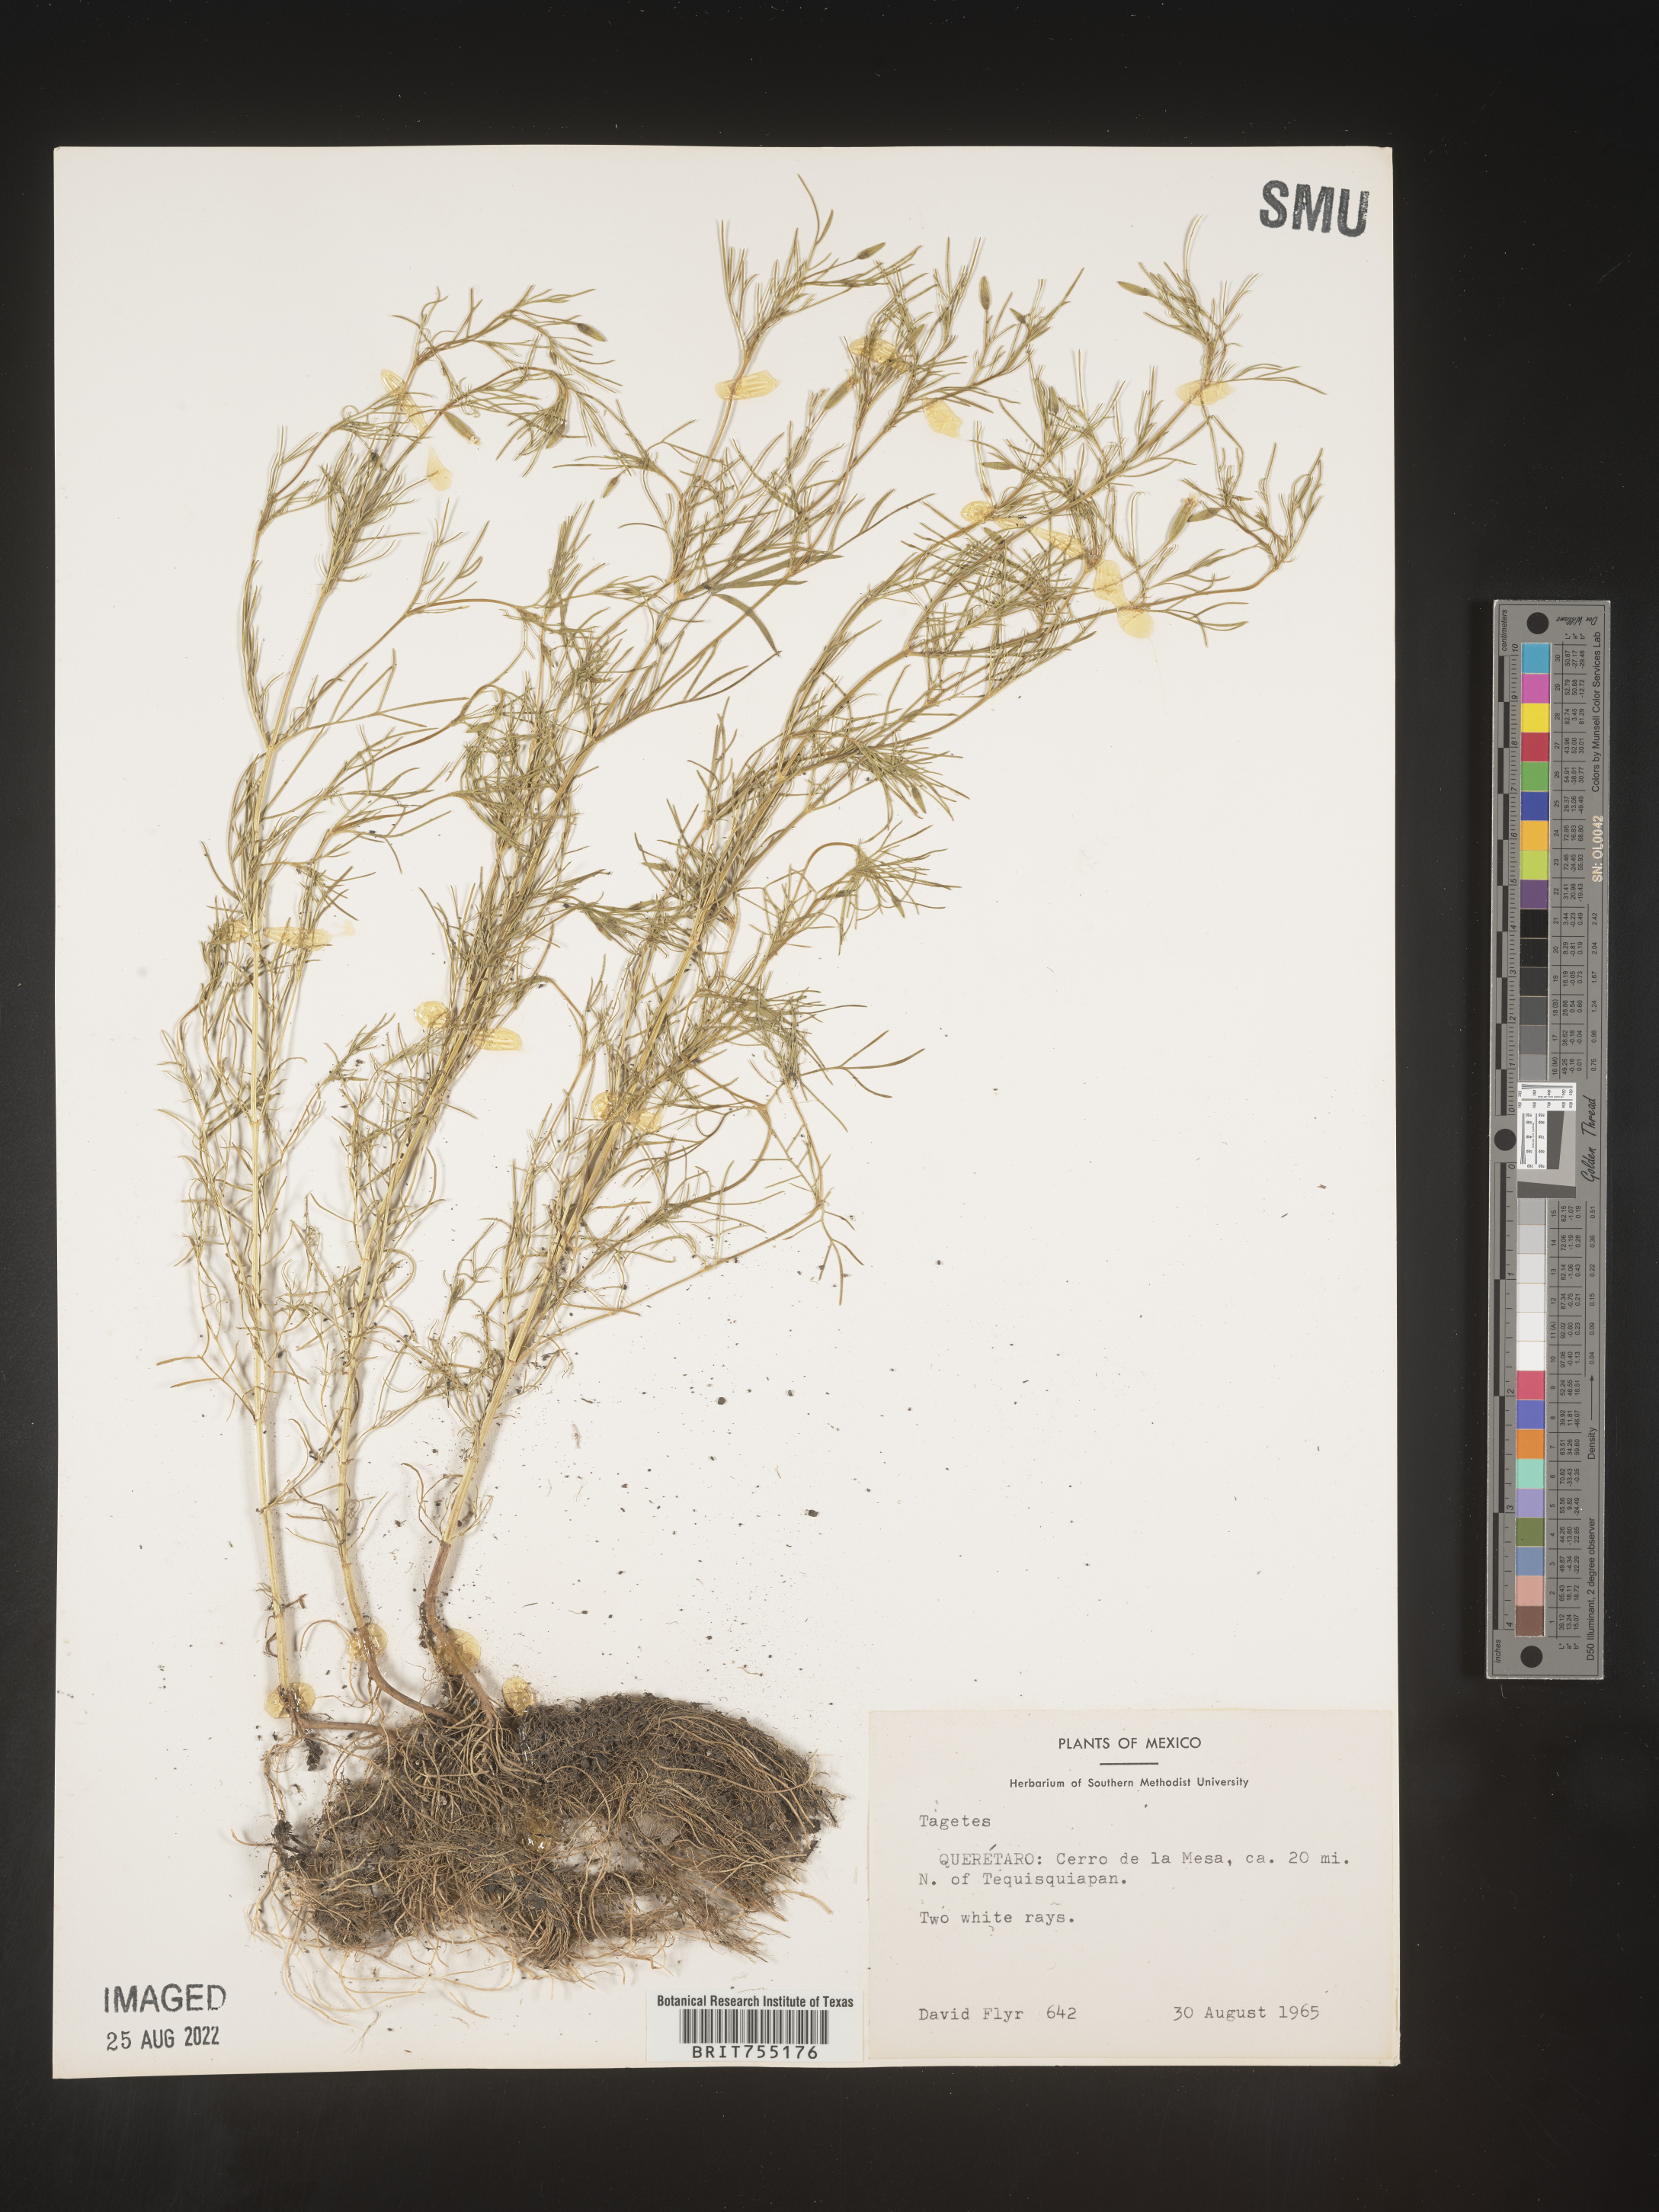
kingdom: Plantae
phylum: Tracheophyta
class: Magnoliopsida
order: Asterales
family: Asteraceae
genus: Tagetes
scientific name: Tagetes
